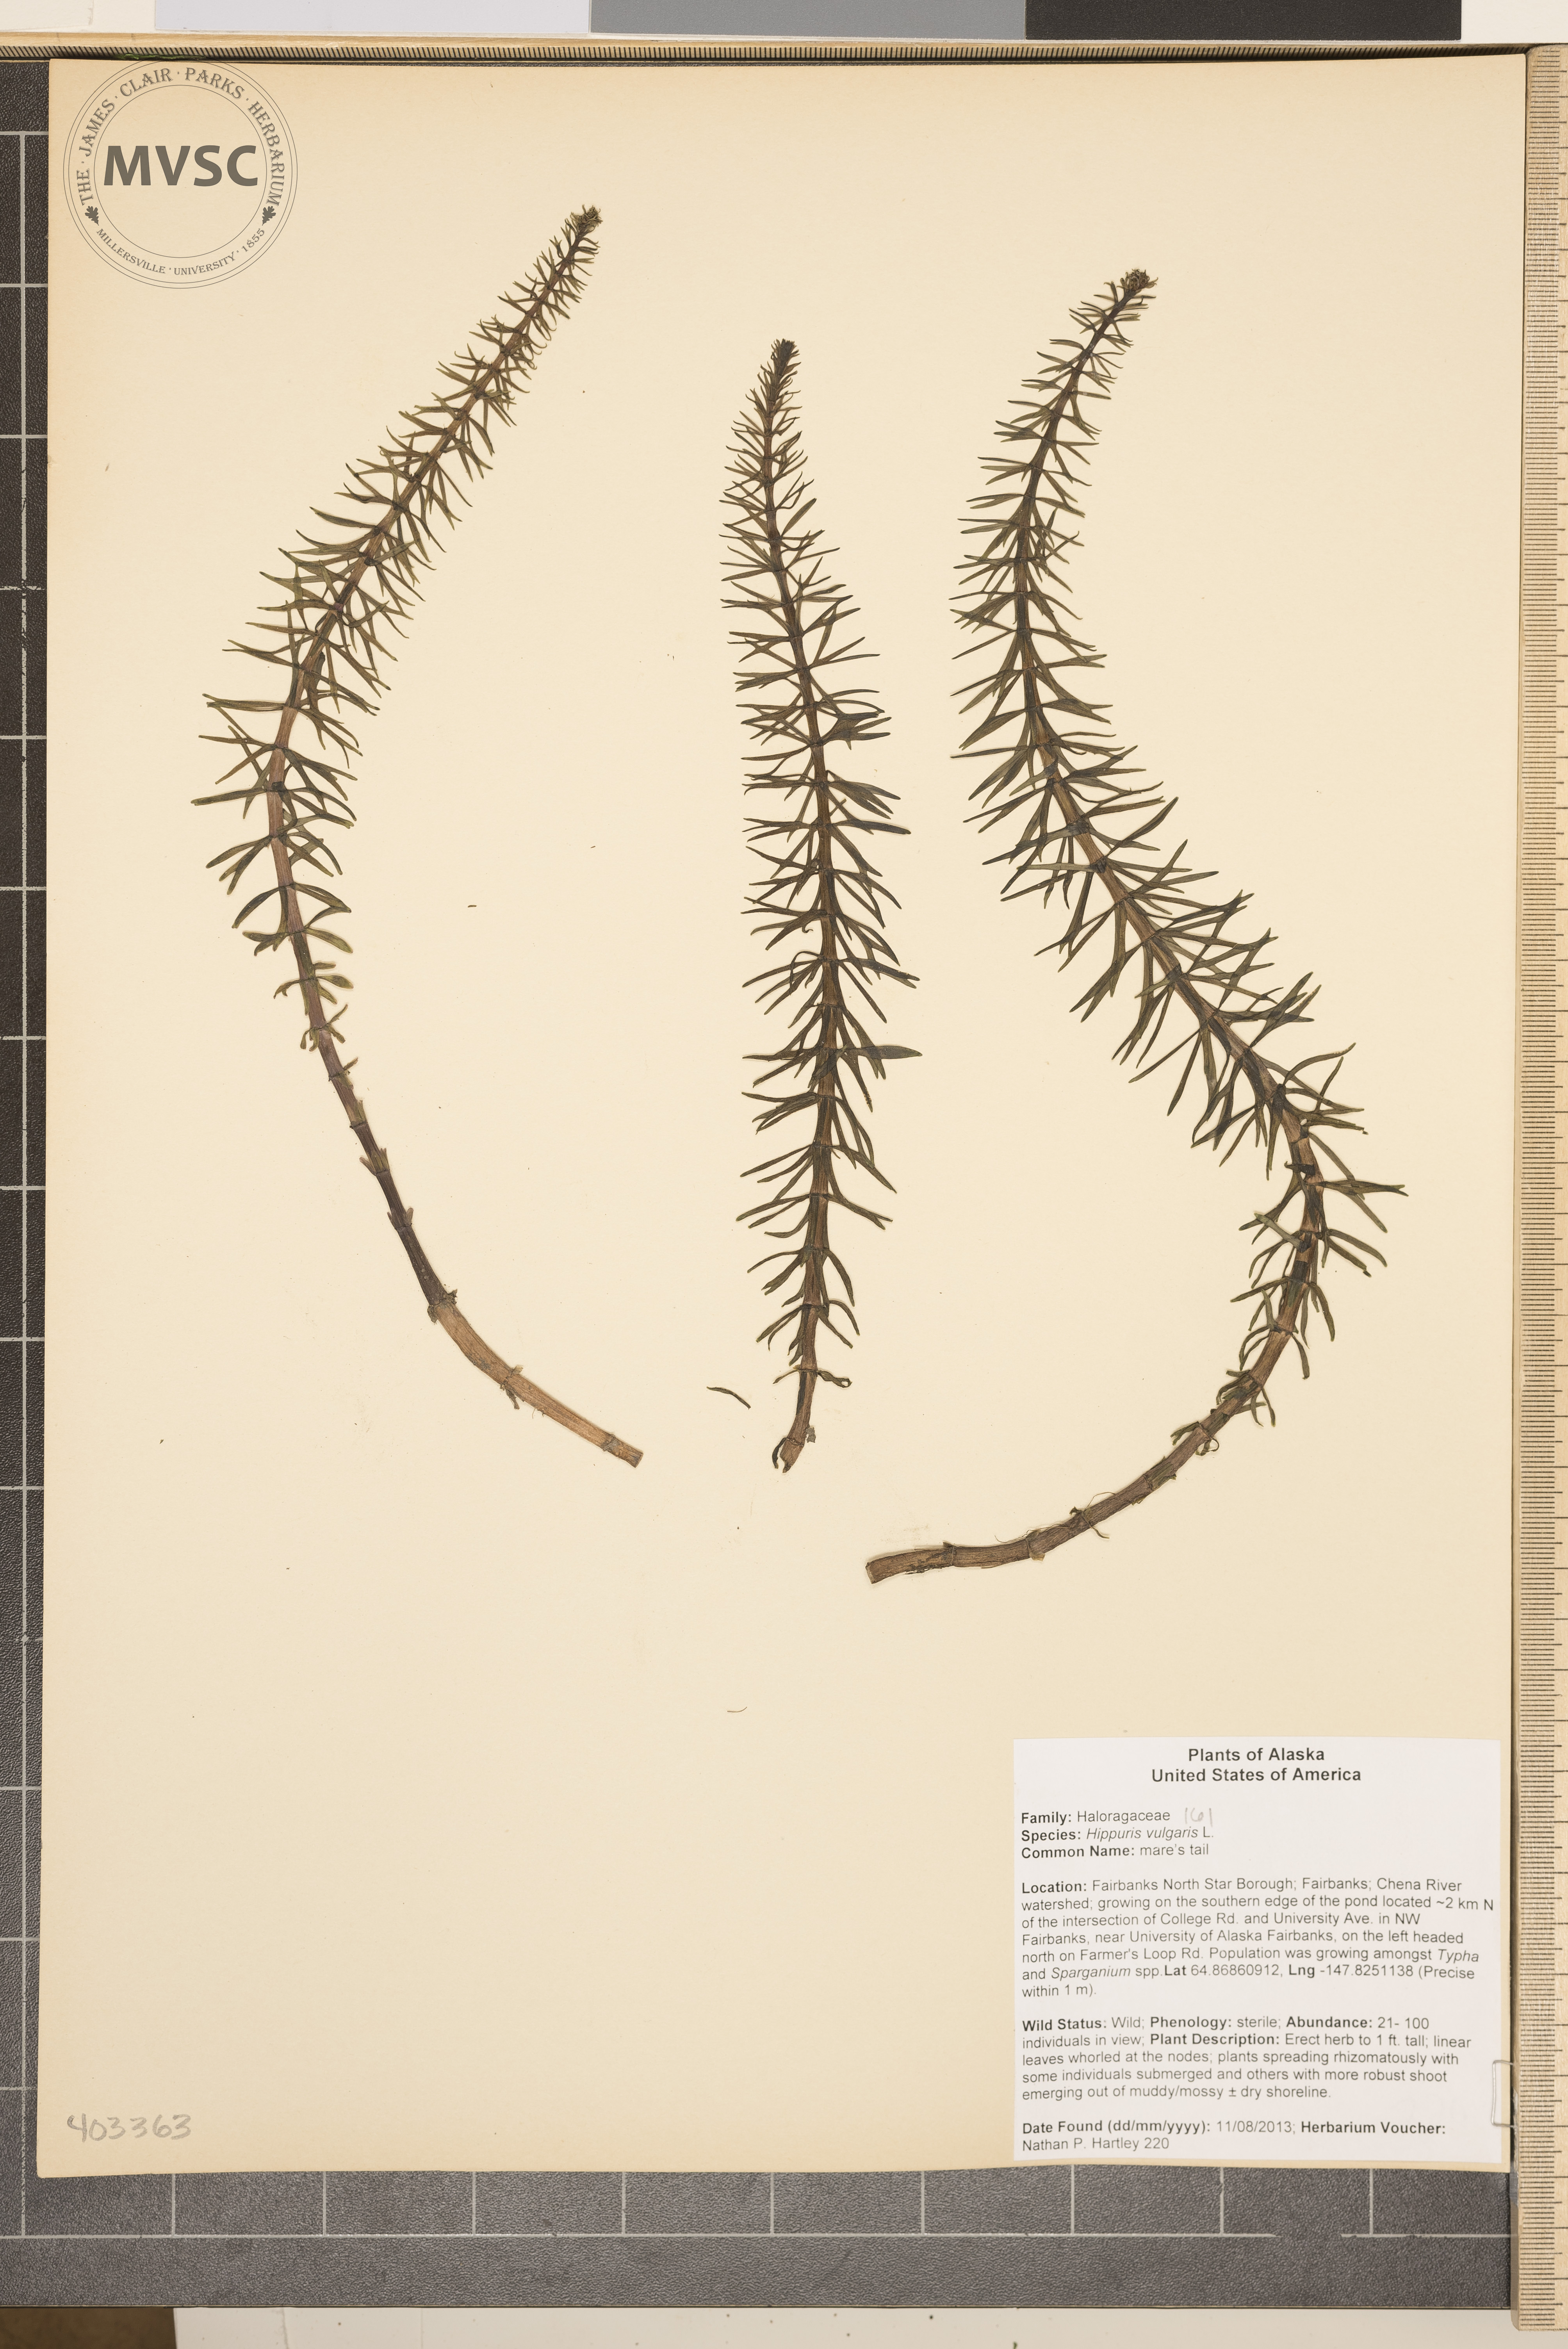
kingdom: Plantae
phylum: Tracheophyta
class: Magnoliopsida
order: Lamiales
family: Plantaginaceae
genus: Hippuris
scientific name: Hippuris vulgaris
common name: Mare's tail
